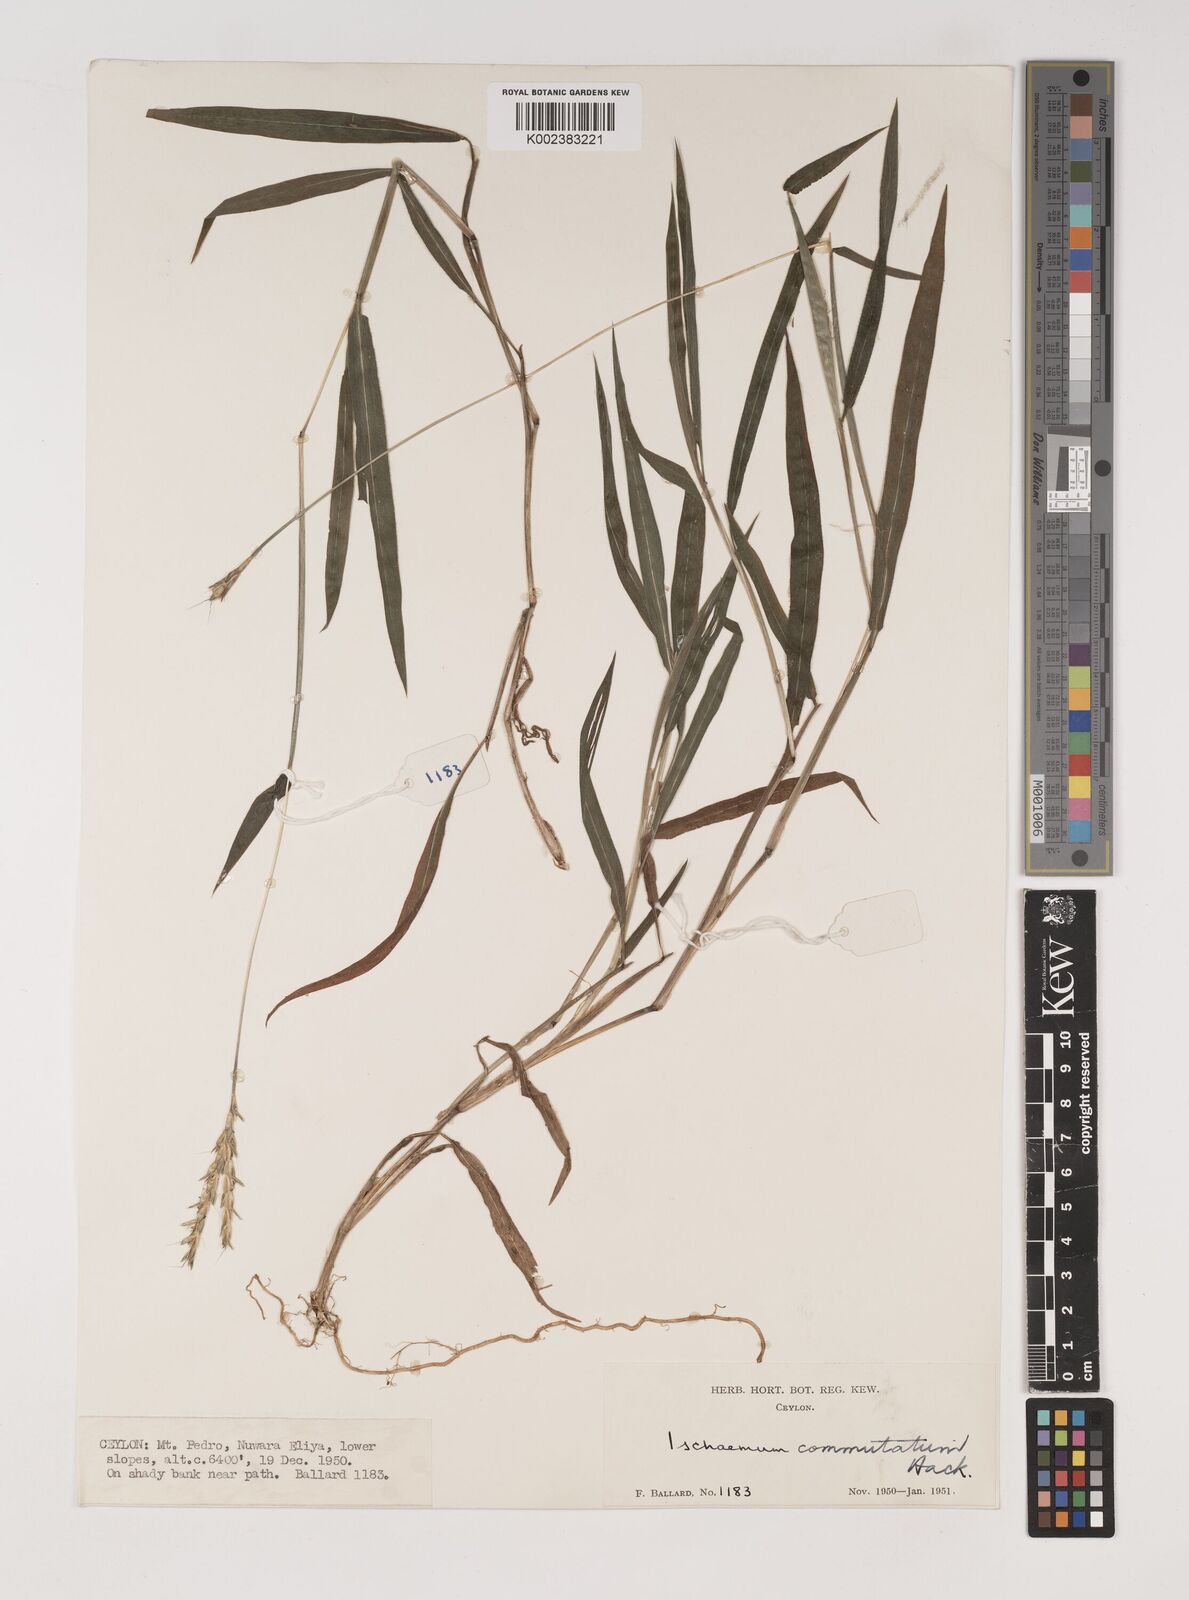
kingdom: Plantae
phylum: Tracheophyta
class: Liliopsida
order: Poales
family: Poaceae
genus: Ischaemum
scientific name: Ischaemum commutatum
